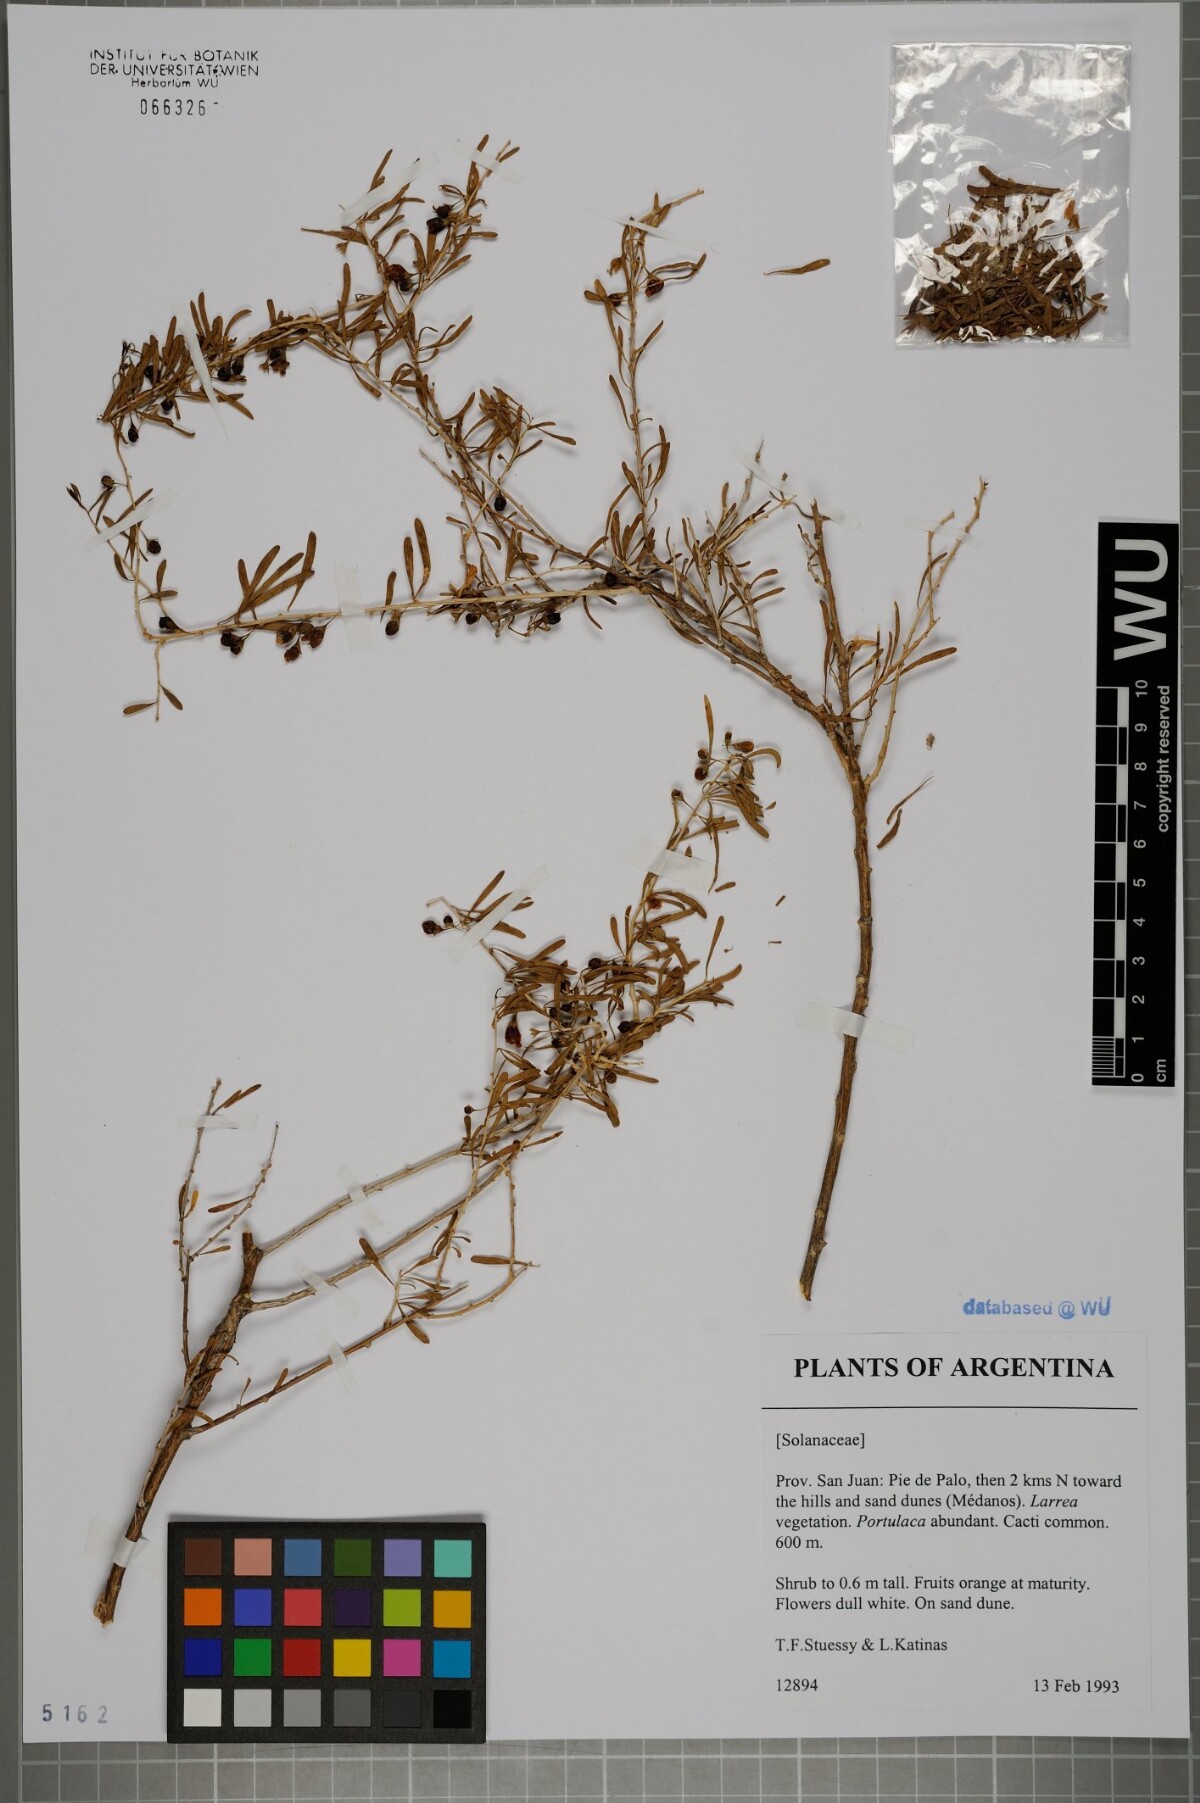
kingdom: Plantae
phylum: Tracheophyta
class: Magnoliopsida
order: Solanales
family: Solanaceae
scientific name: Solanaceae
